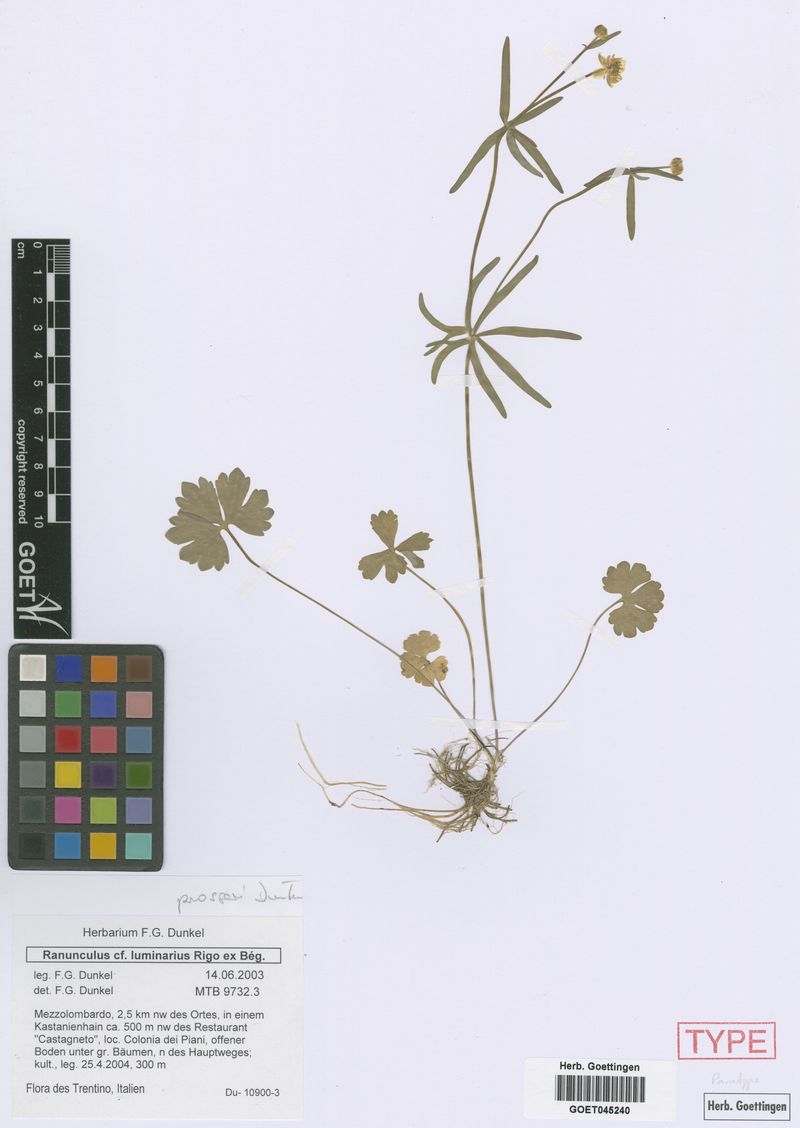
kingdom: Plantae
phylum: Tracheophyta
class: Magnoliopsida
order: Ranunculales
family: Ranunculaceae
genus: Ranunculus
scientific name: Ranunculus prosseri
